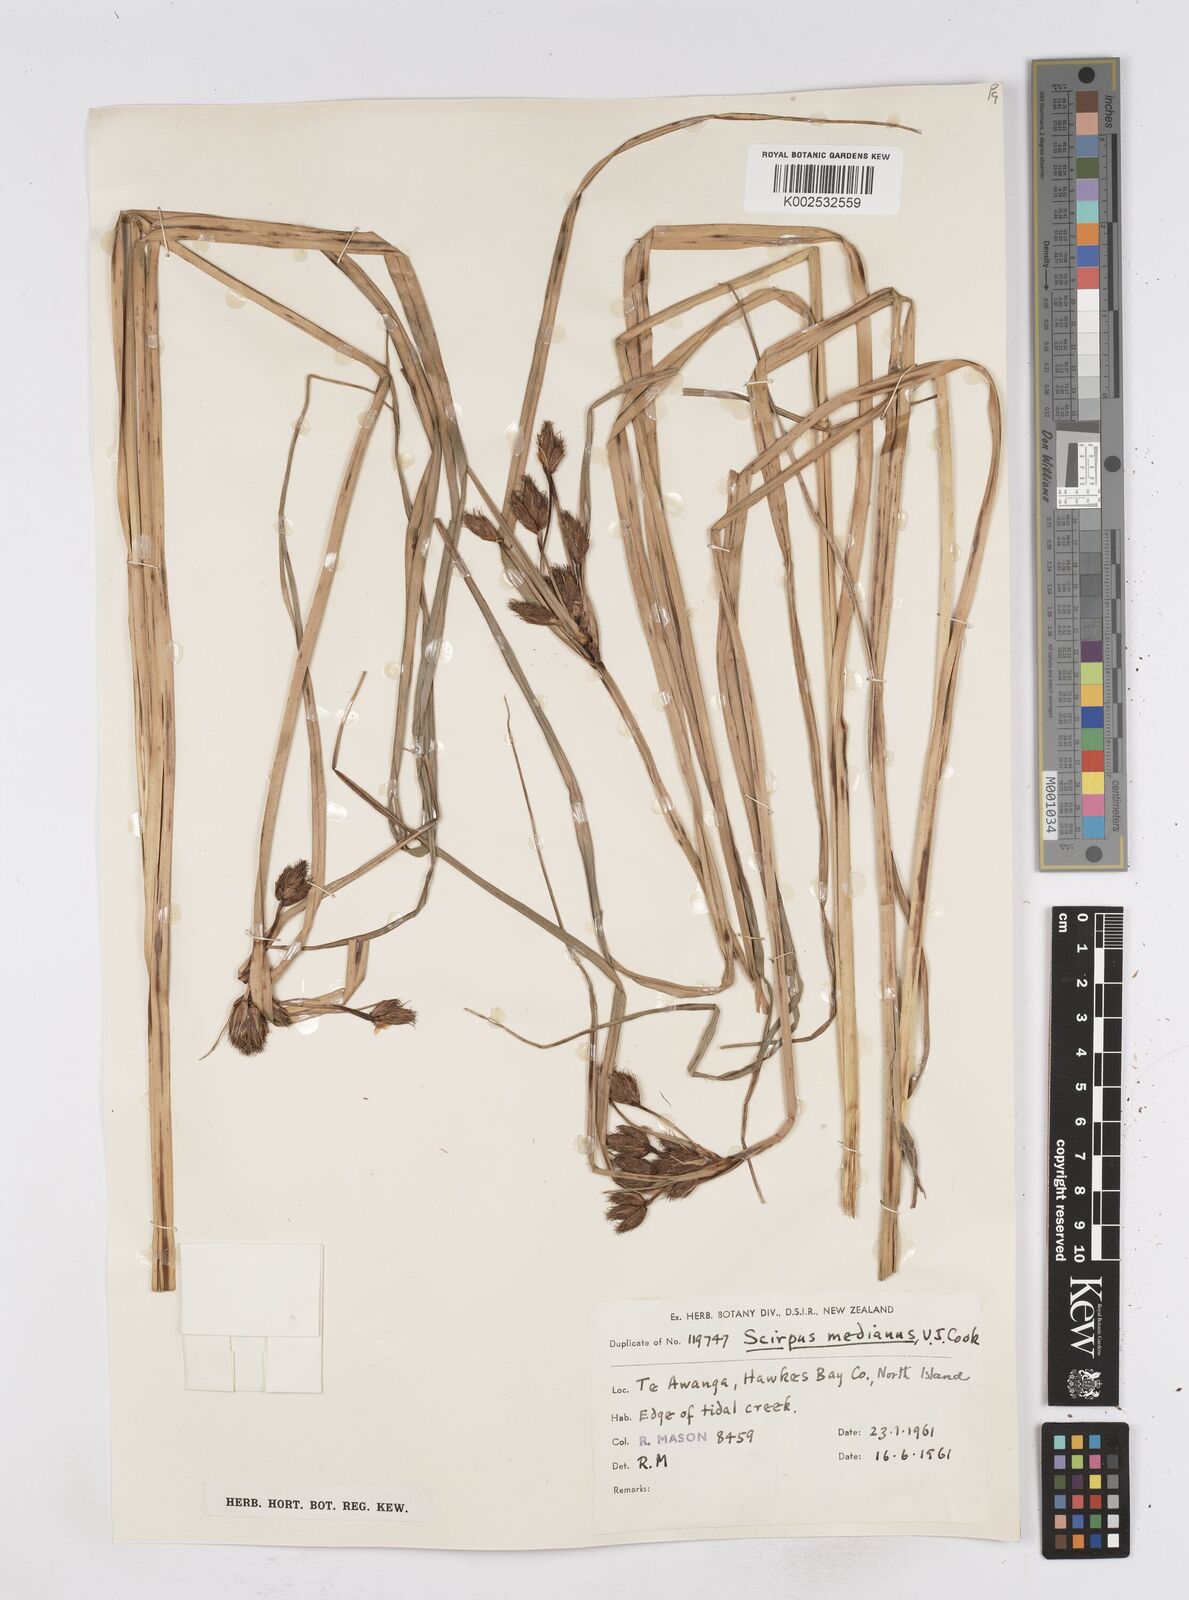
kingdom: Plantae
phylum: Tracheophyta
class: Liliopsida
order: Poales
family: Cyperaceae
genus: Bolboschoenus
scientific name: Bolboschoenus medianus
